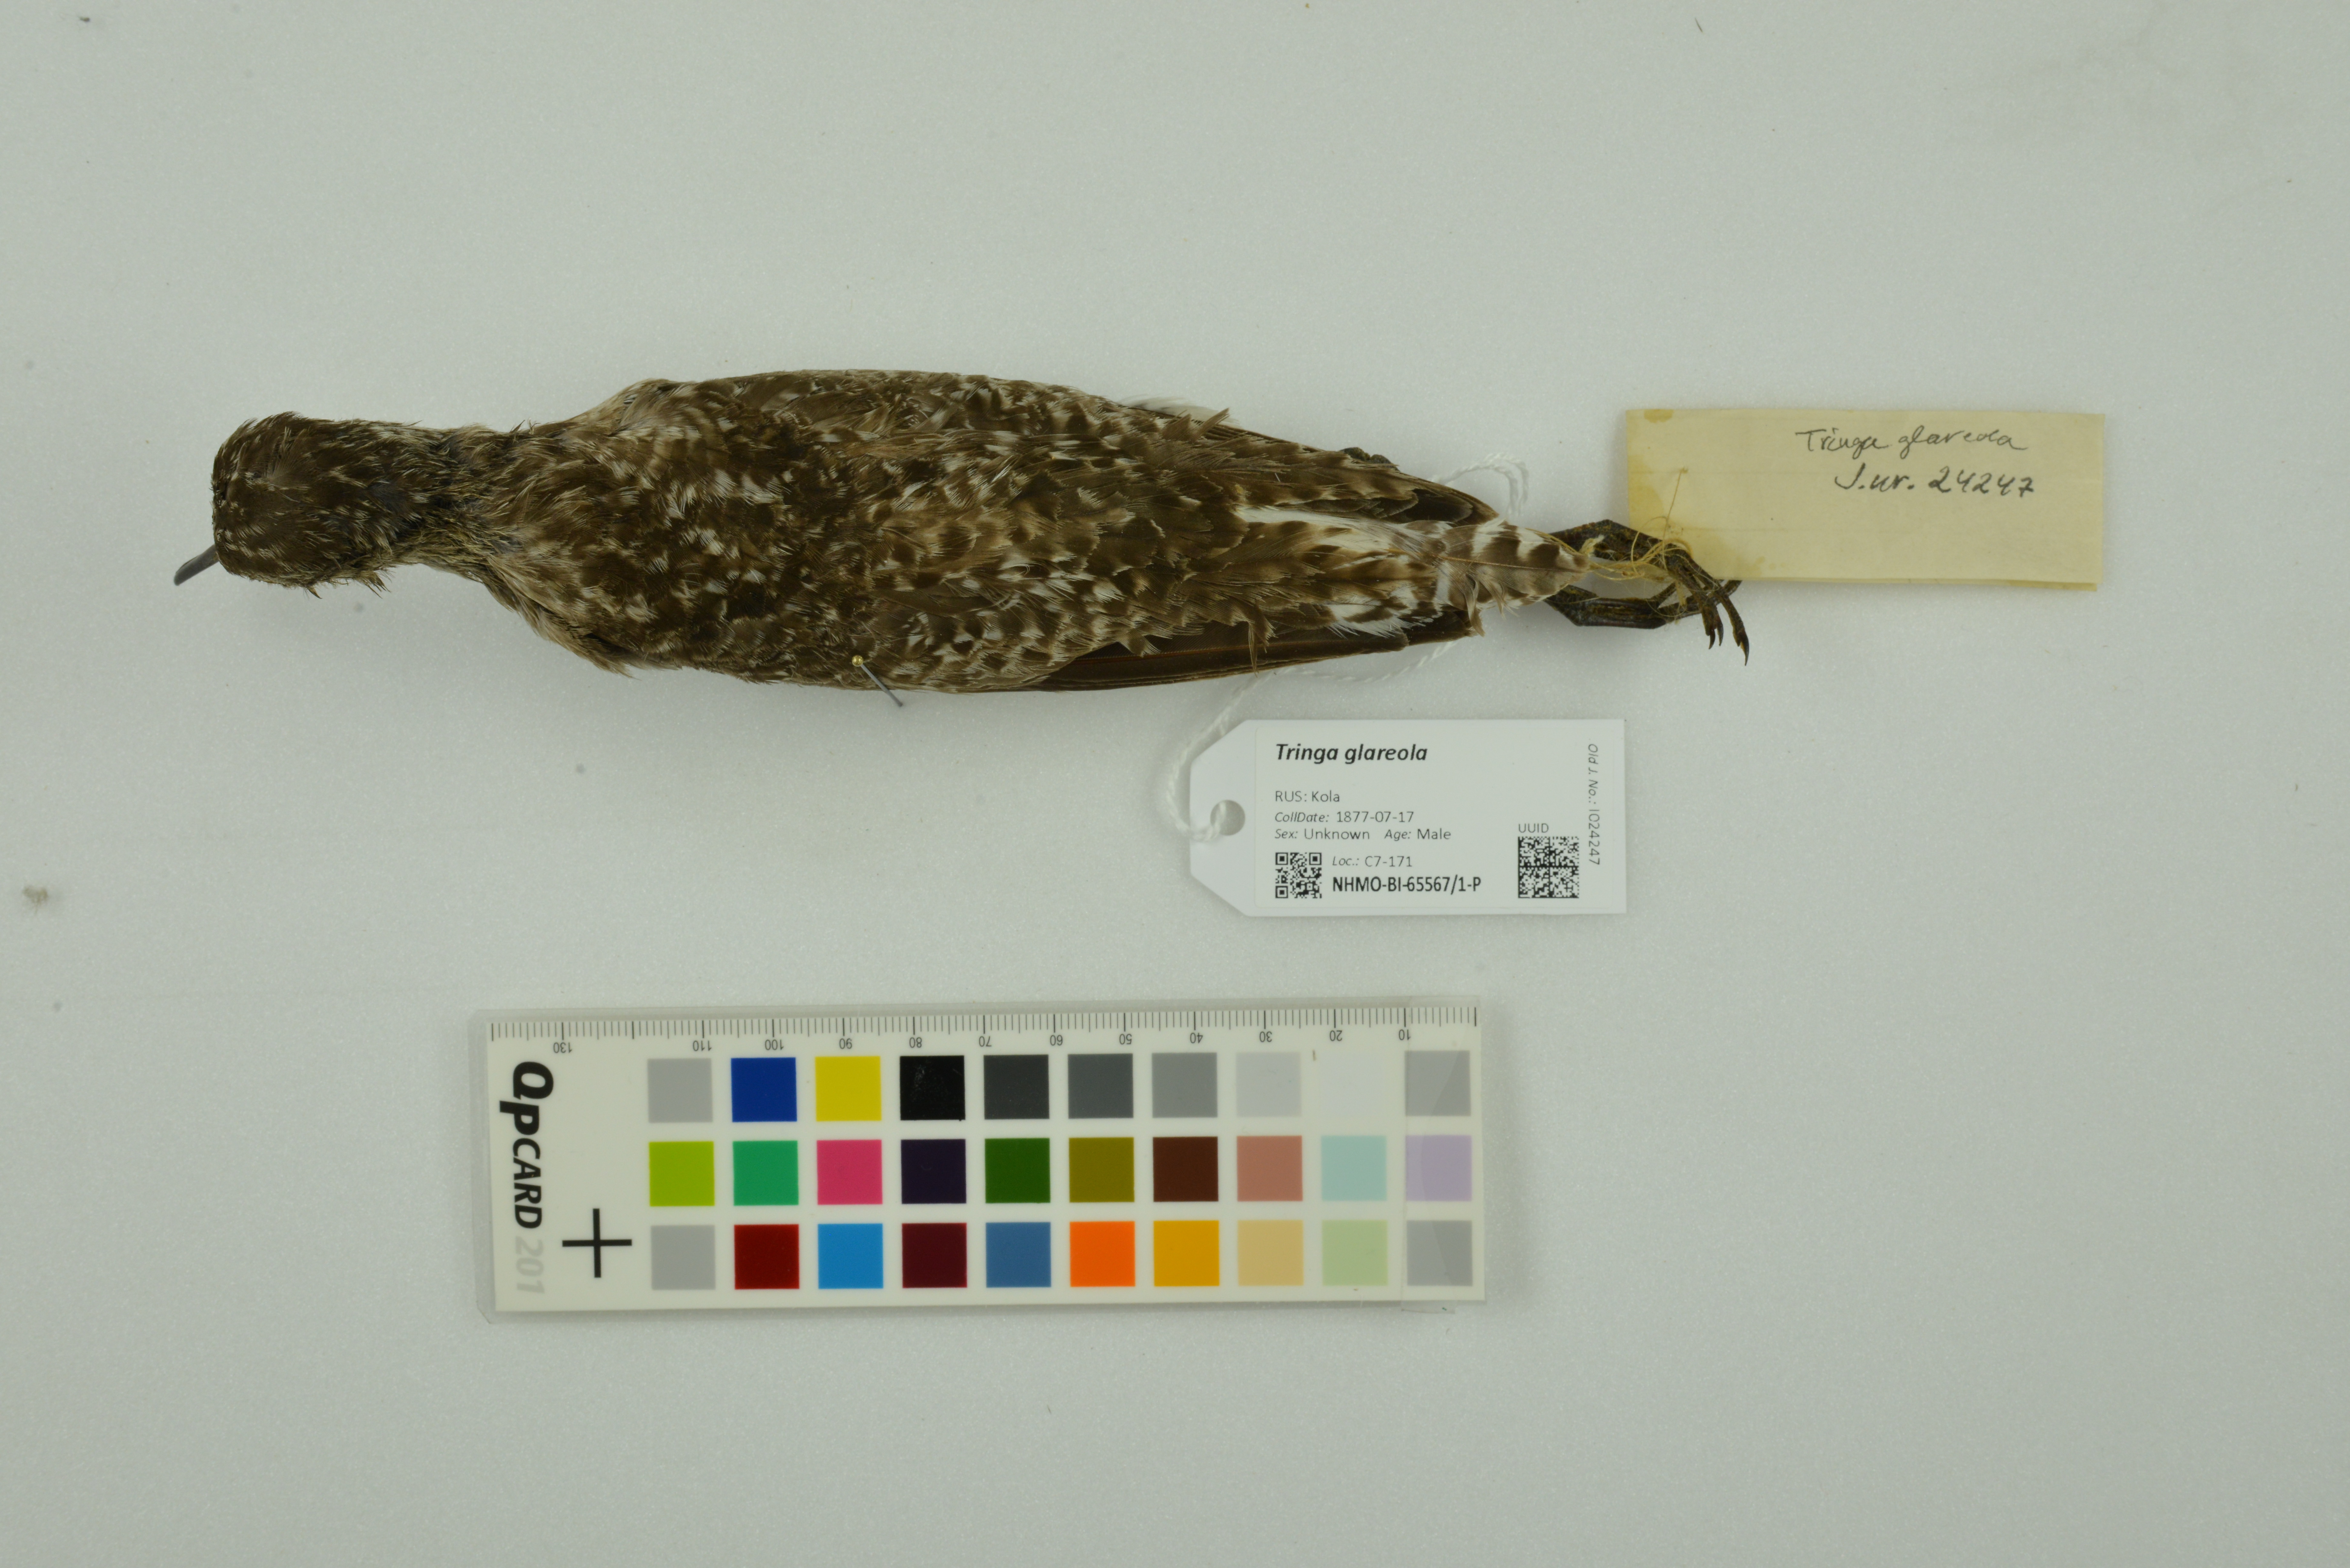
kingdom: Animalia
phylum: Chordata
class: Aves
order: Charadriiformes
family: Scolopacidae
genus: Tringa
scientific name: Tringa glareola
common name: Wood sandpiper
